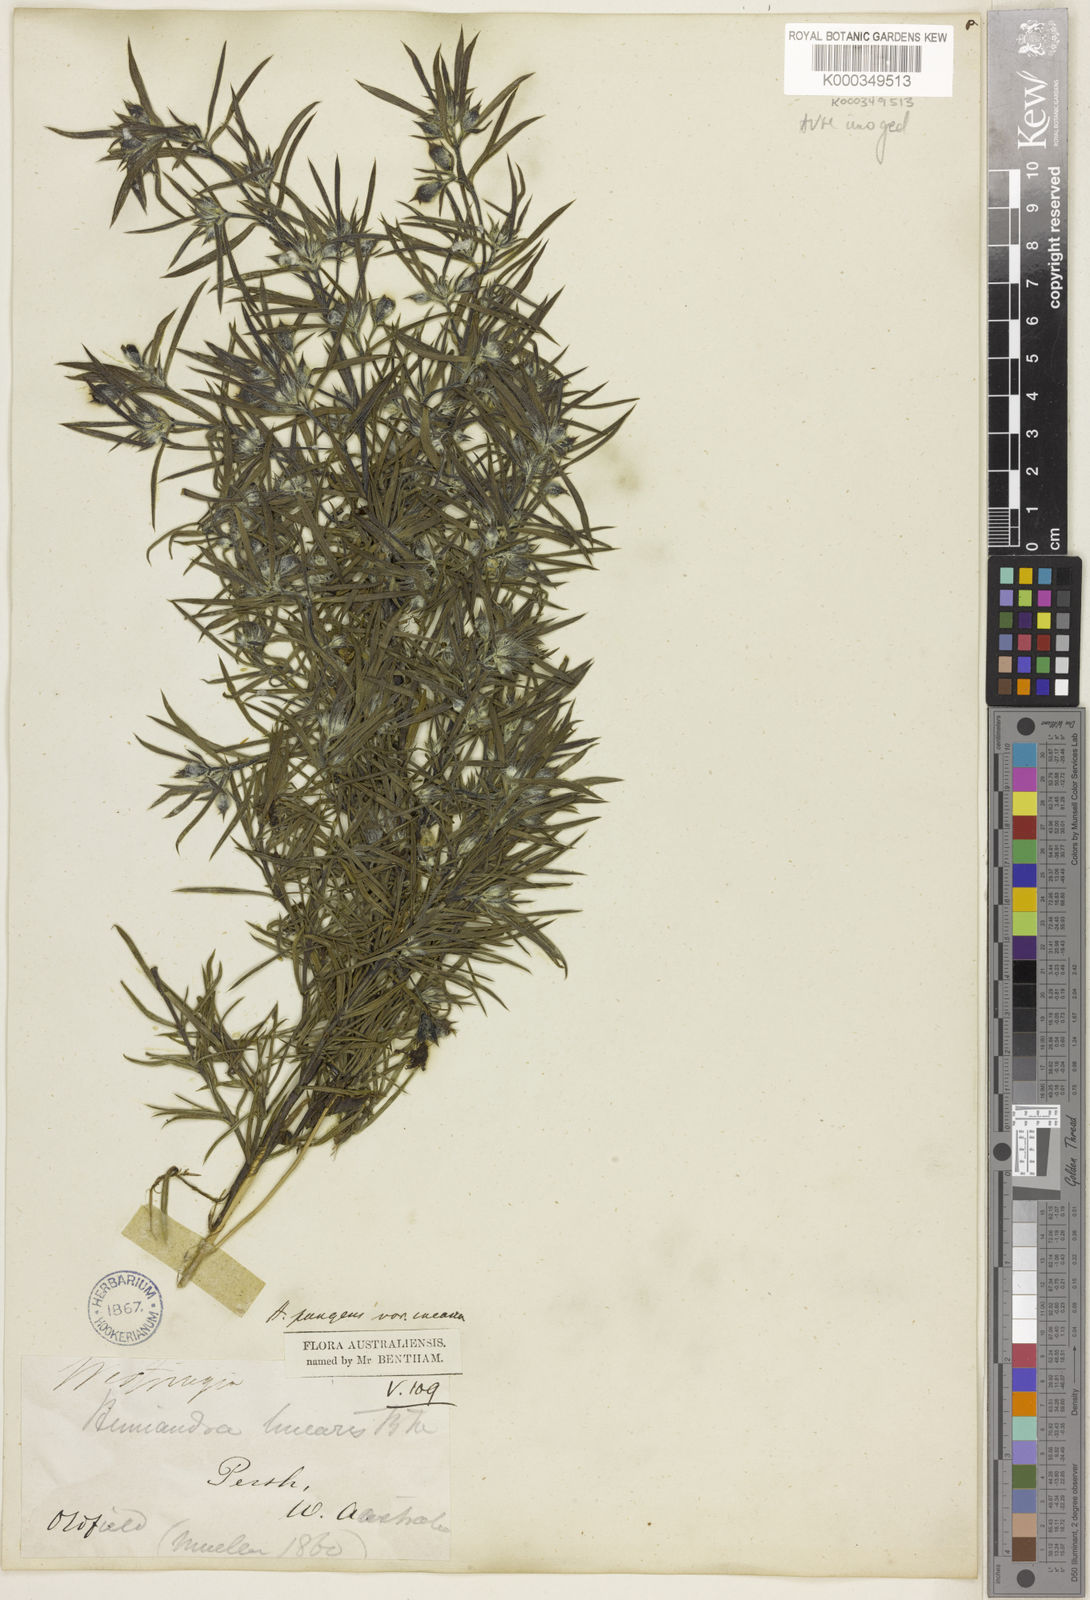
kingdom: Plantae
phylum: Tracheophyta
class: Magnoliopsida
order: Lamiales
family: Lamiaceae
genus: Hemiandra
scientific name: Hemiandra pungens
